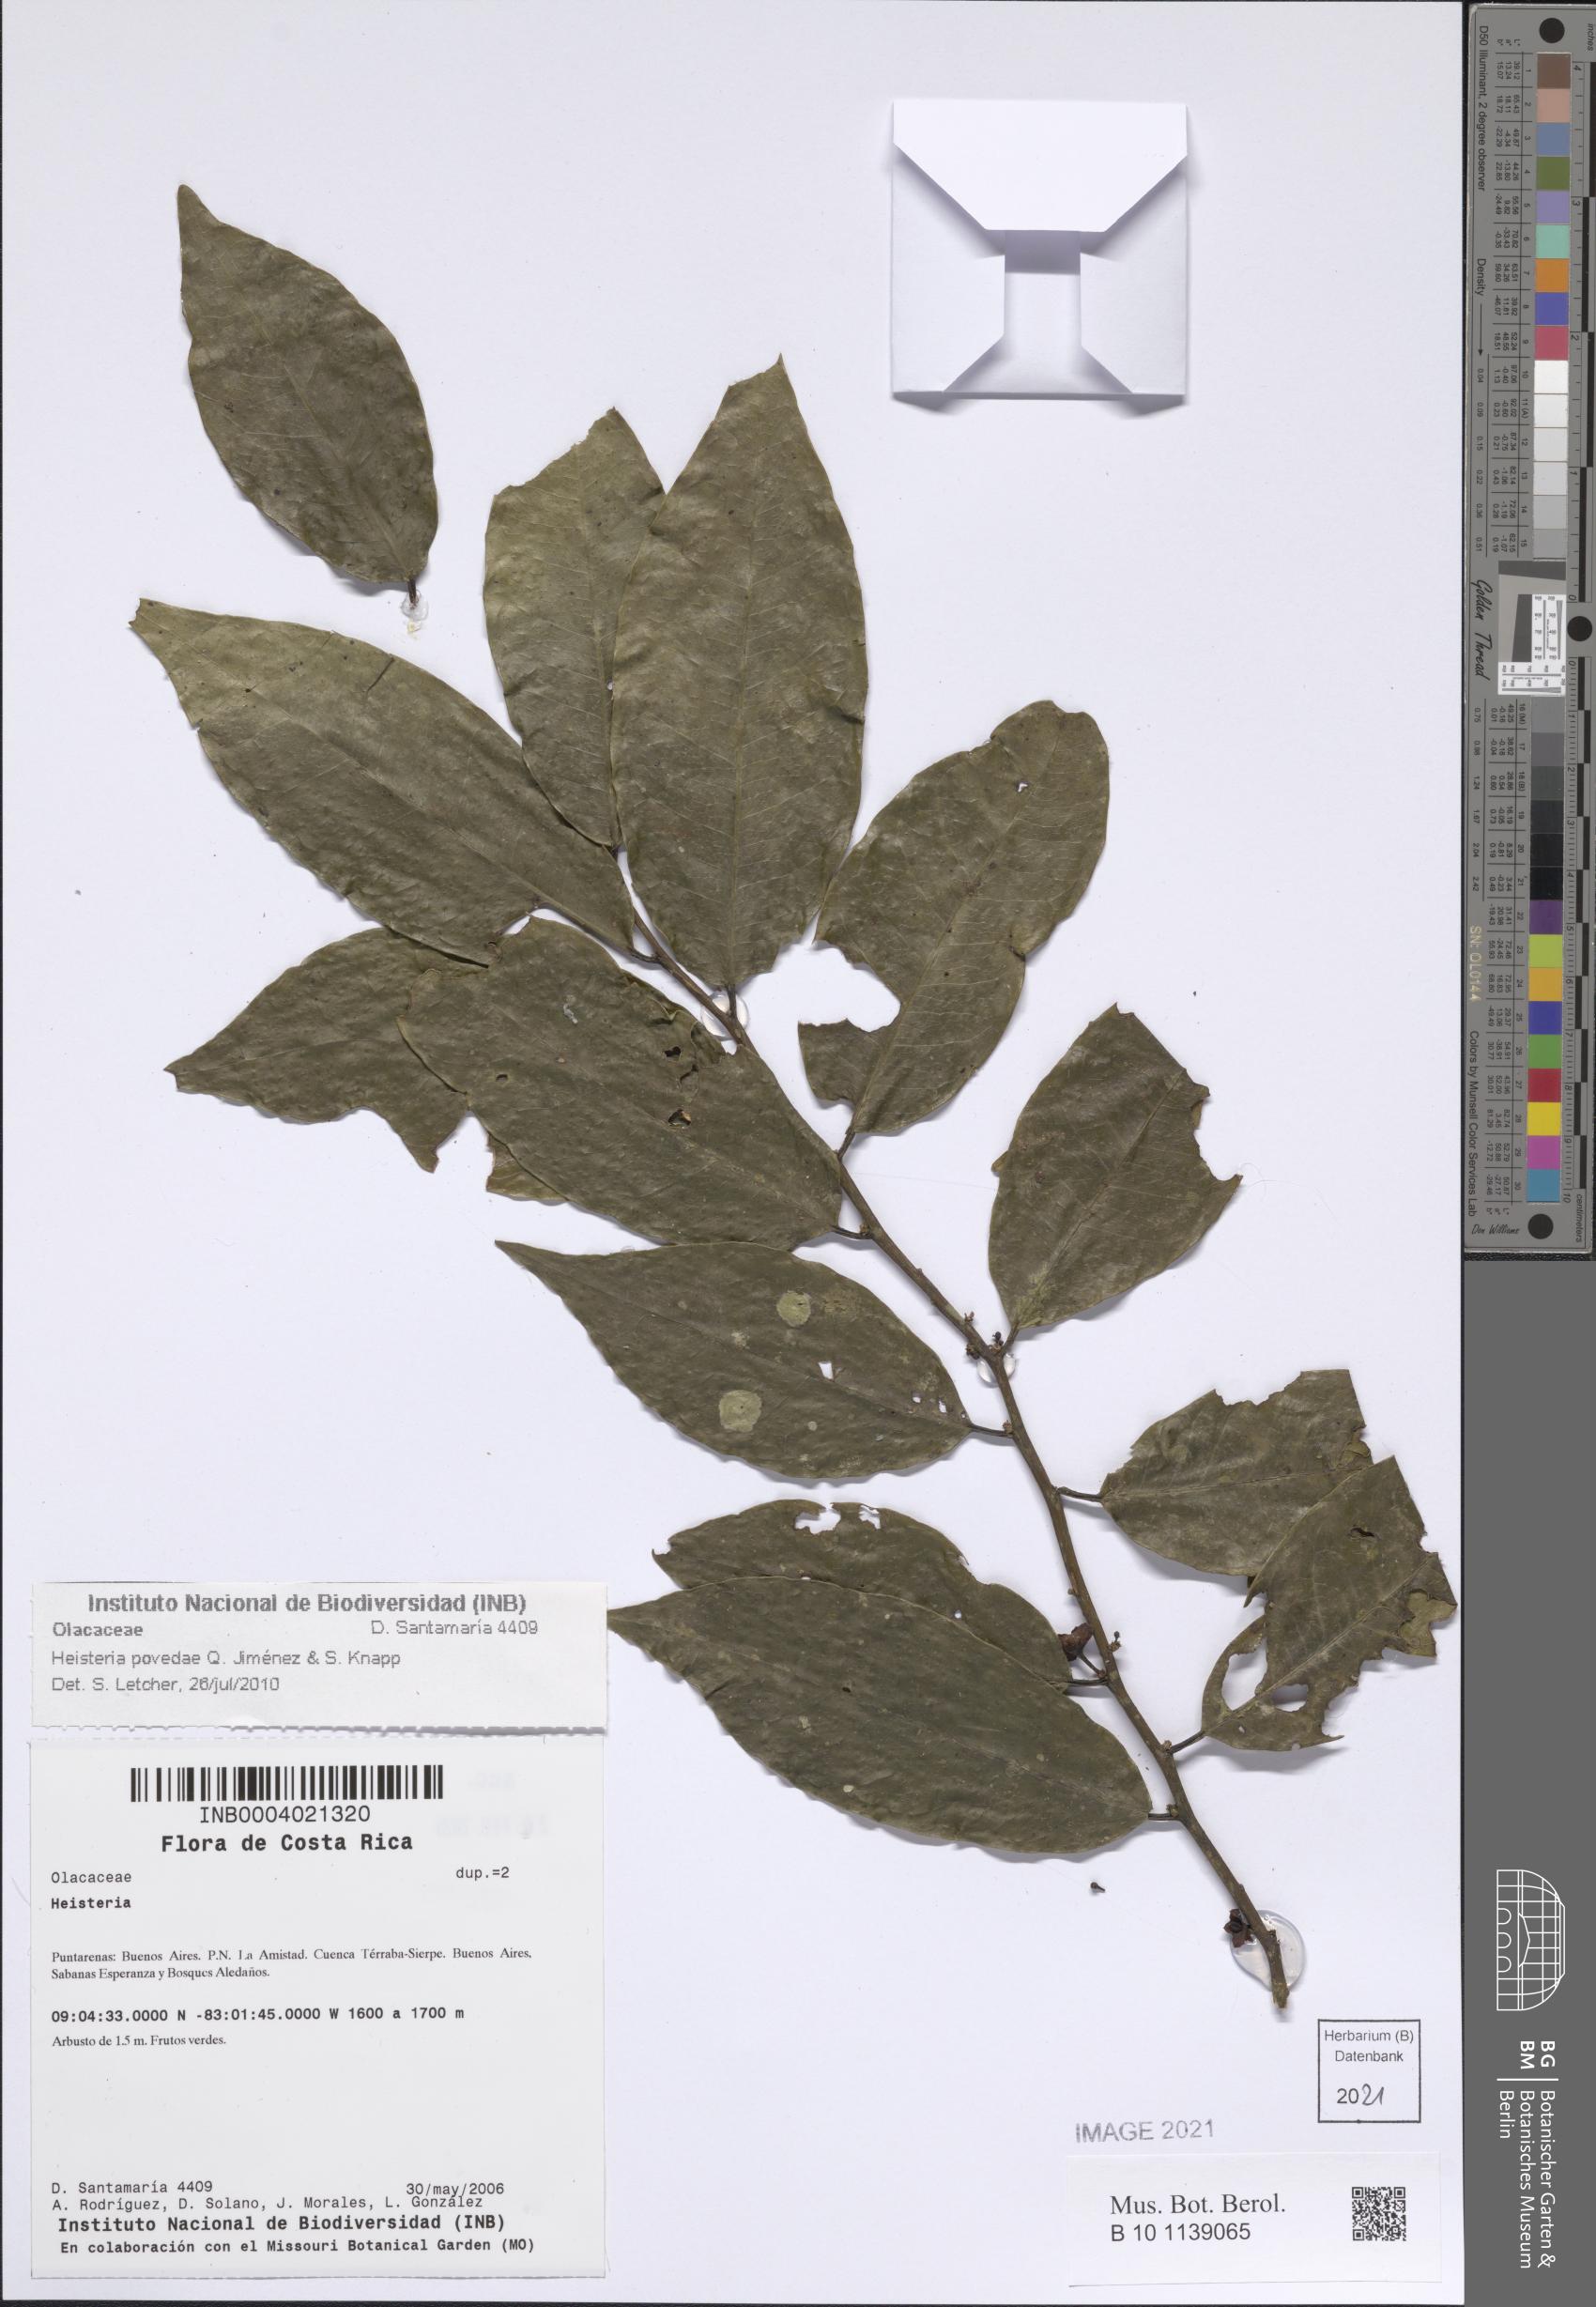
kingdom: Plantae
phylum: Tracheophyta
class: Magnoliopsida
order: Santalales
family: Erythropalaceae
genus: Heisteria
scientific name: Heisteria povedae
